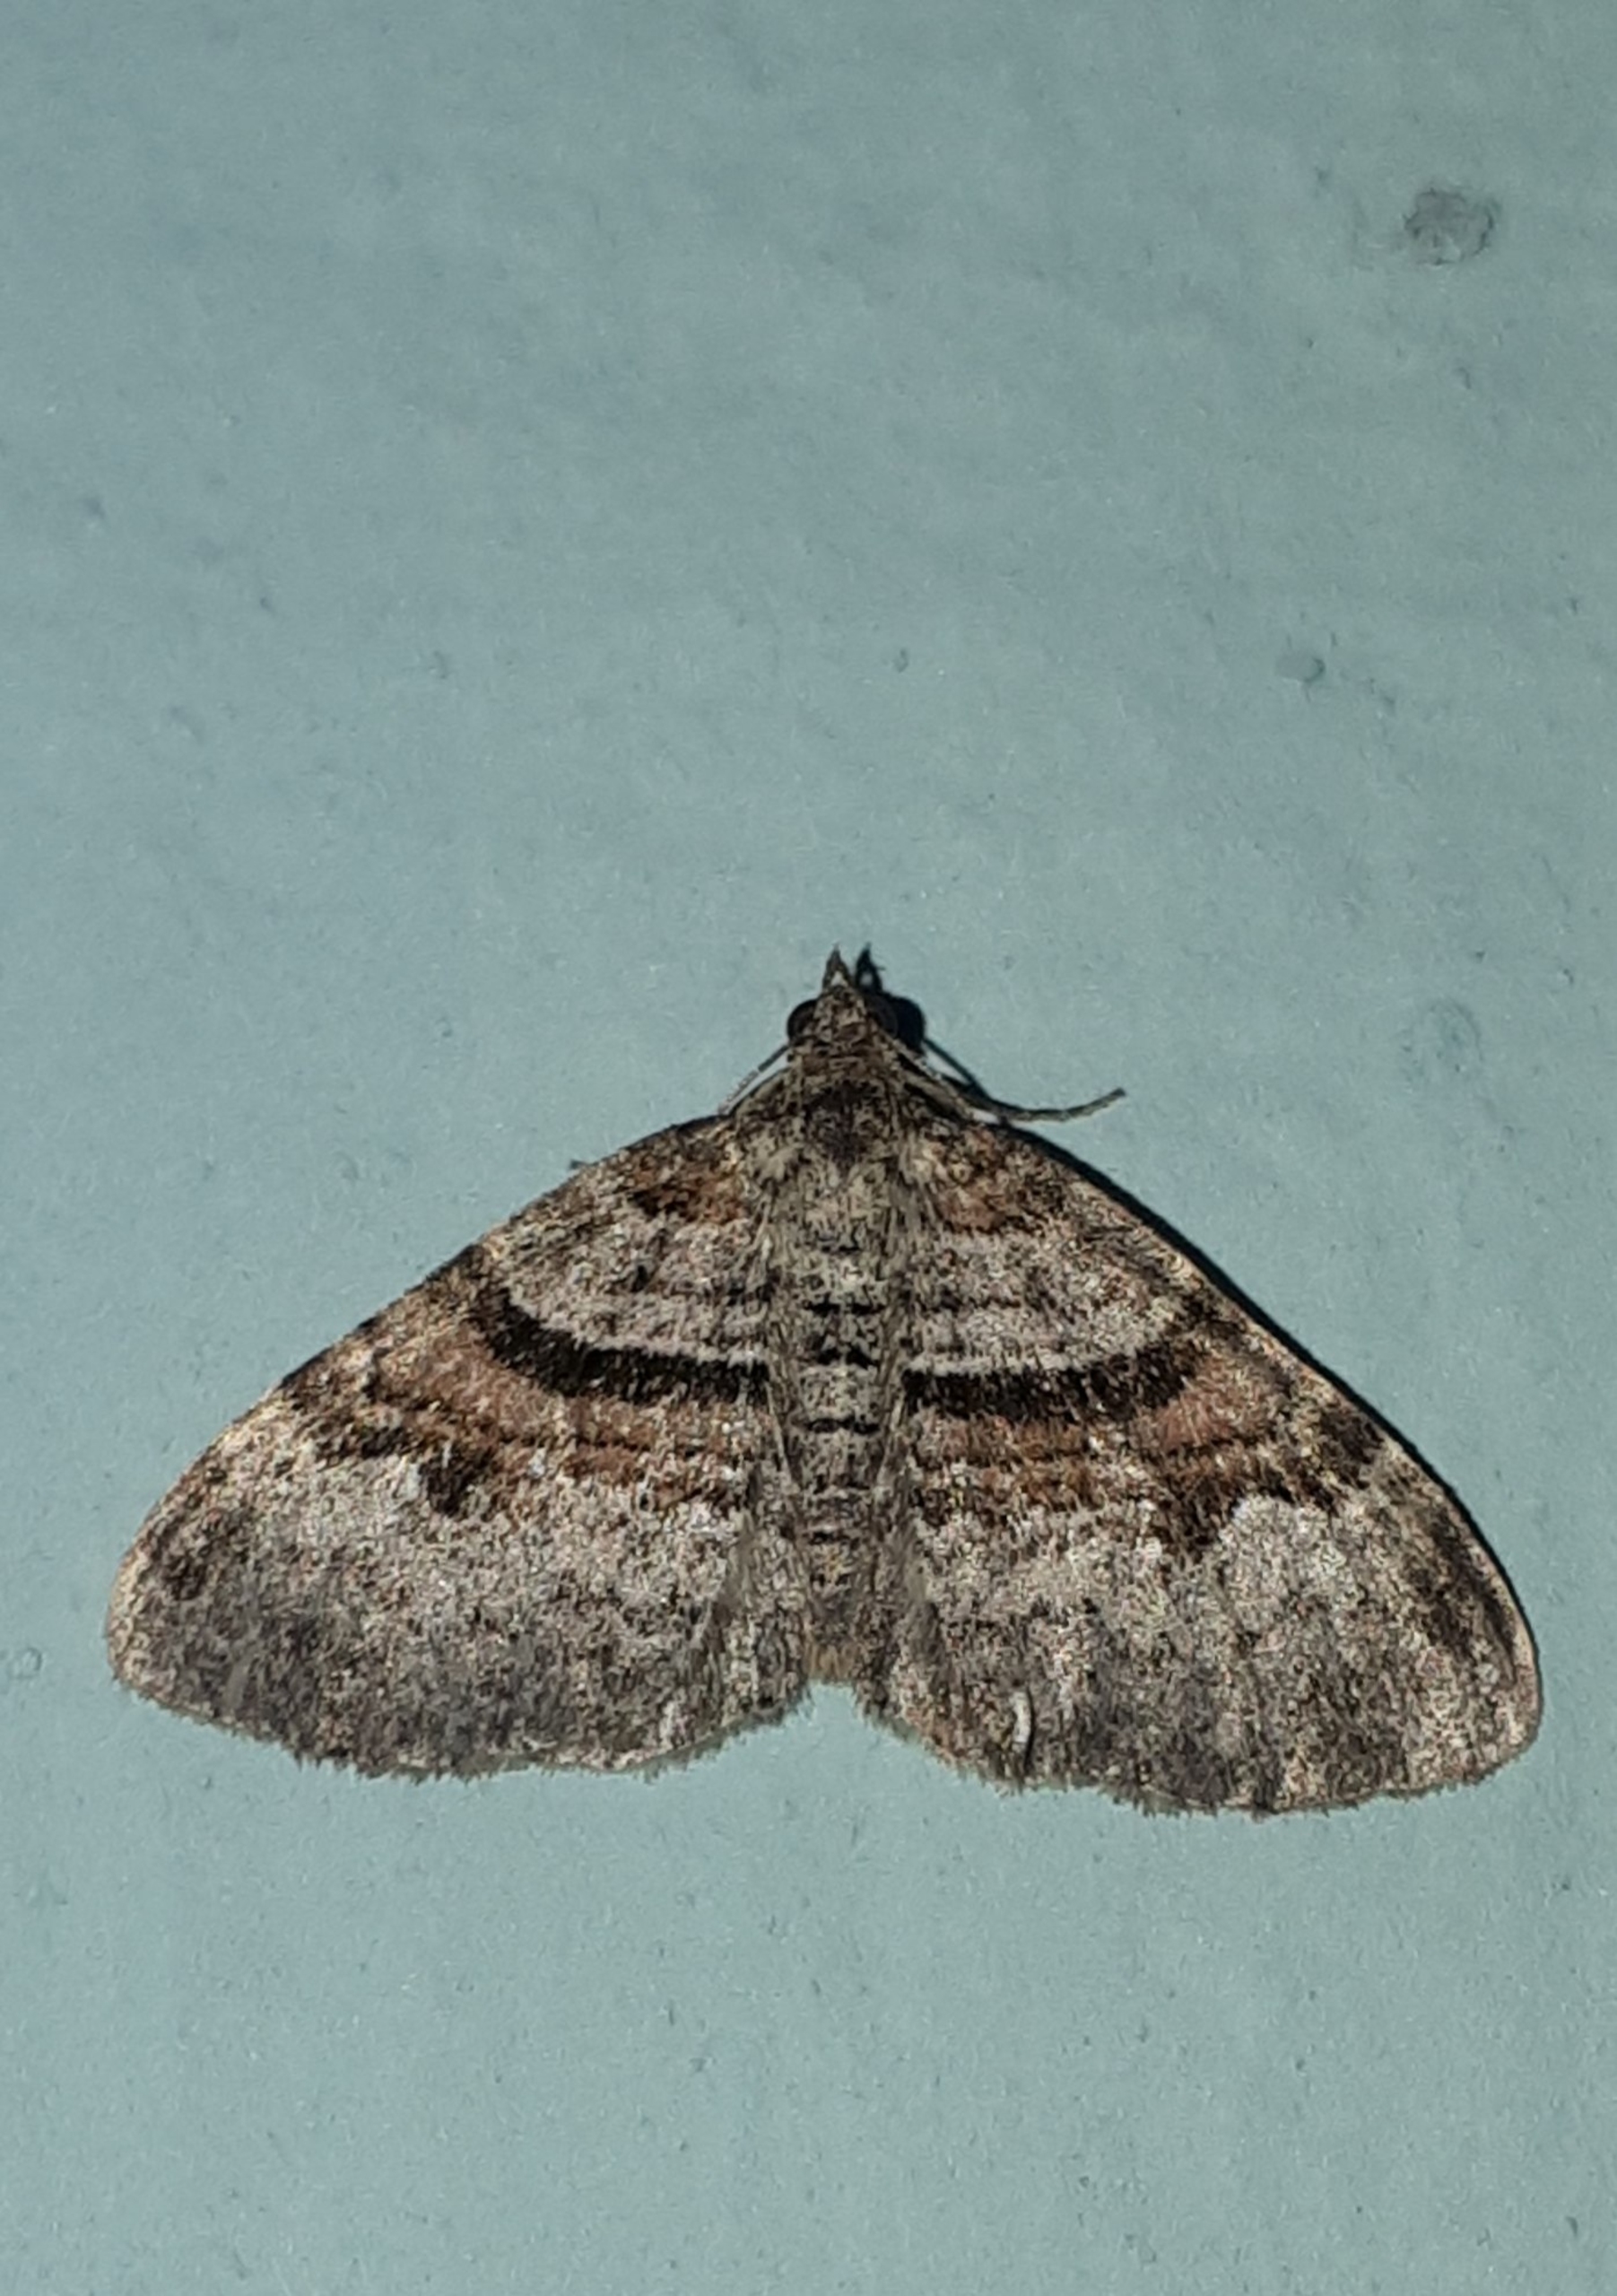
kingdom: Animalia
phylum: Arthropoda
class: Insecta
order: Lepidoptera
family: Geometridae
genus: Xanthorhoe
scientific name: Xanthorhoe designata
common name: Sortkantet bladmåler
